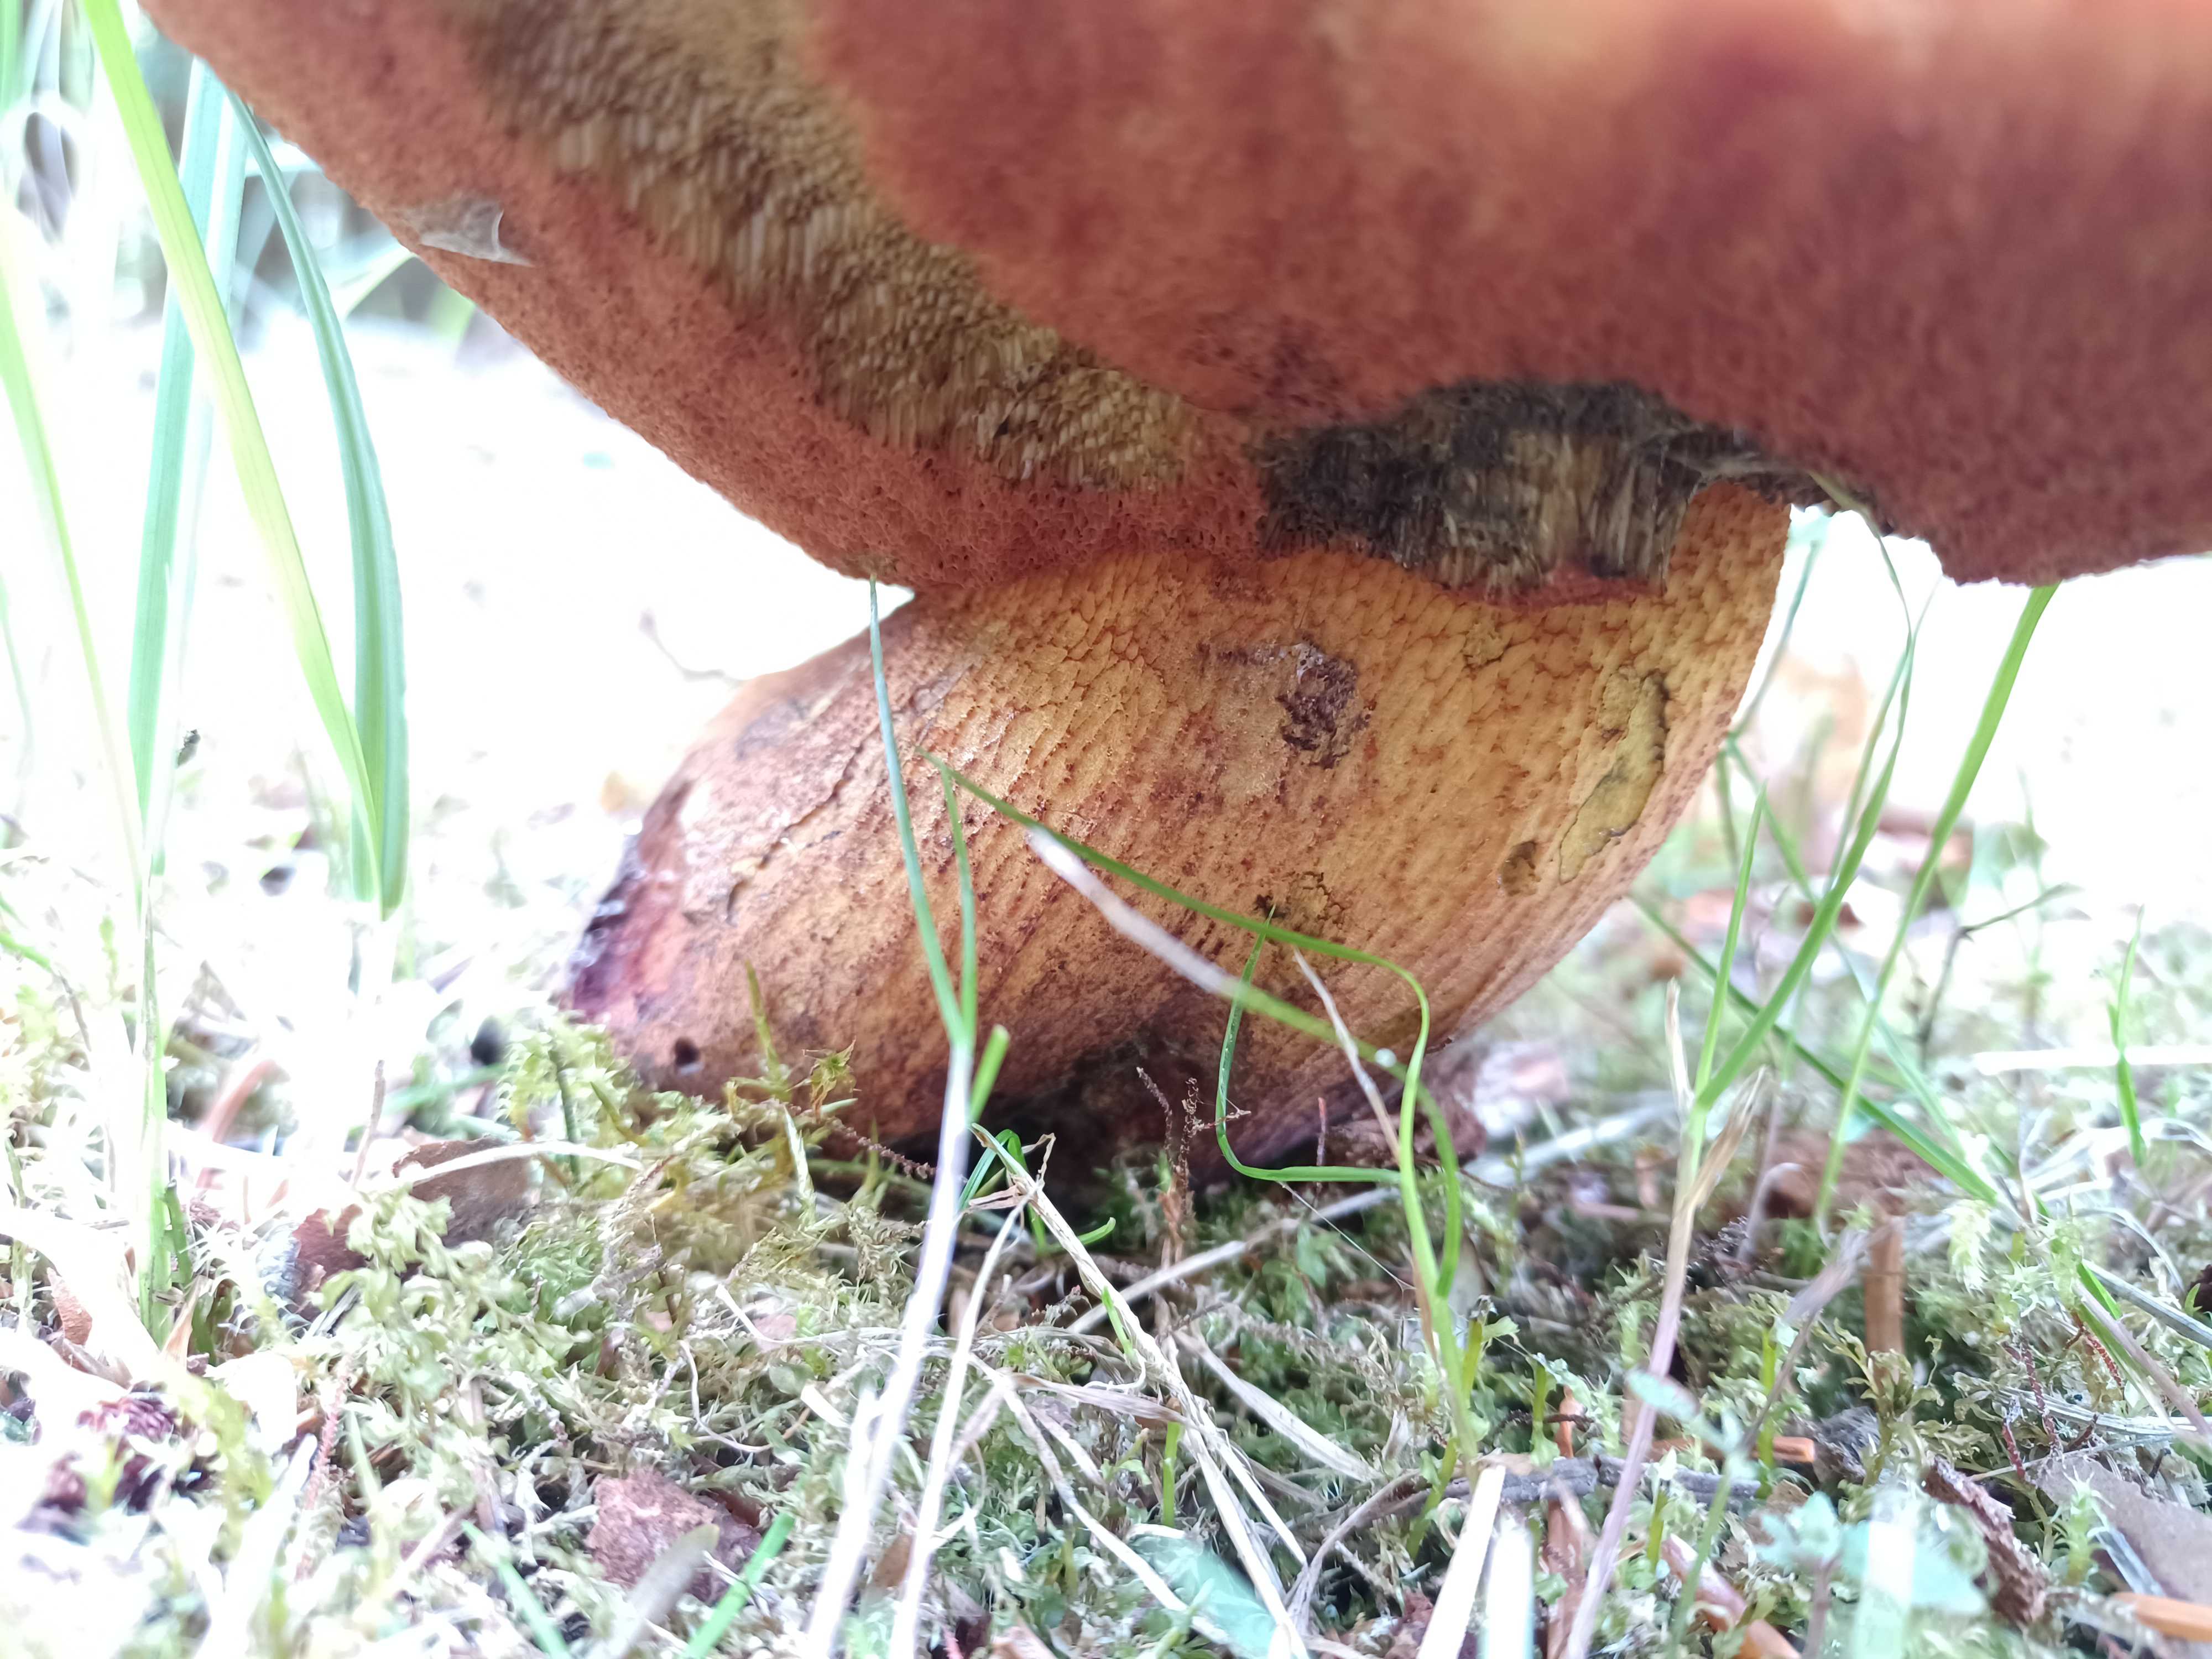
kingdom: Fungi
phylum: Basidiomycota
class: Agaricomycetes
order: Boletales
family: Boletaceae
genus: Suillellus
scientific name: Suillellus luridus
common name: netstokket indigorørhat
